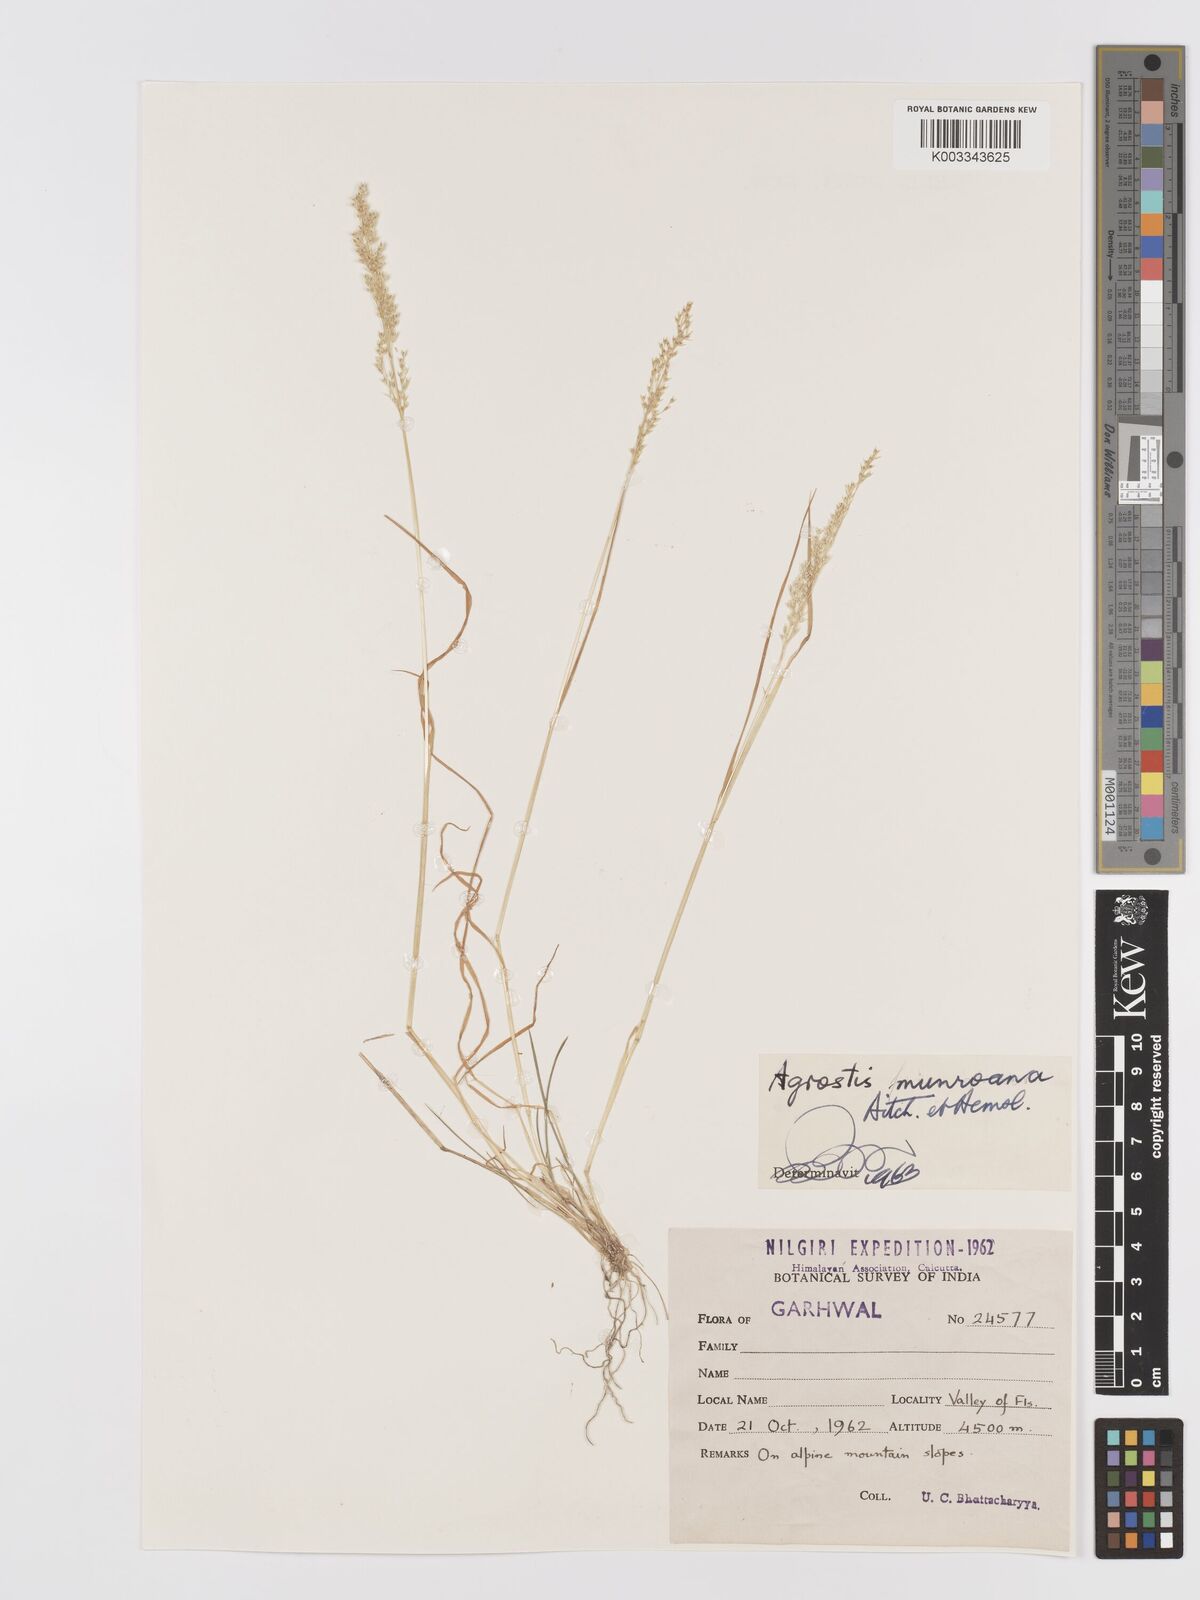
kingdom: Plantae
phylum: Tracheophyta
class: Liliopsida
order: Poales
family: Poaceae
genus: Agrostis
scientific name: Agrostis munroana
